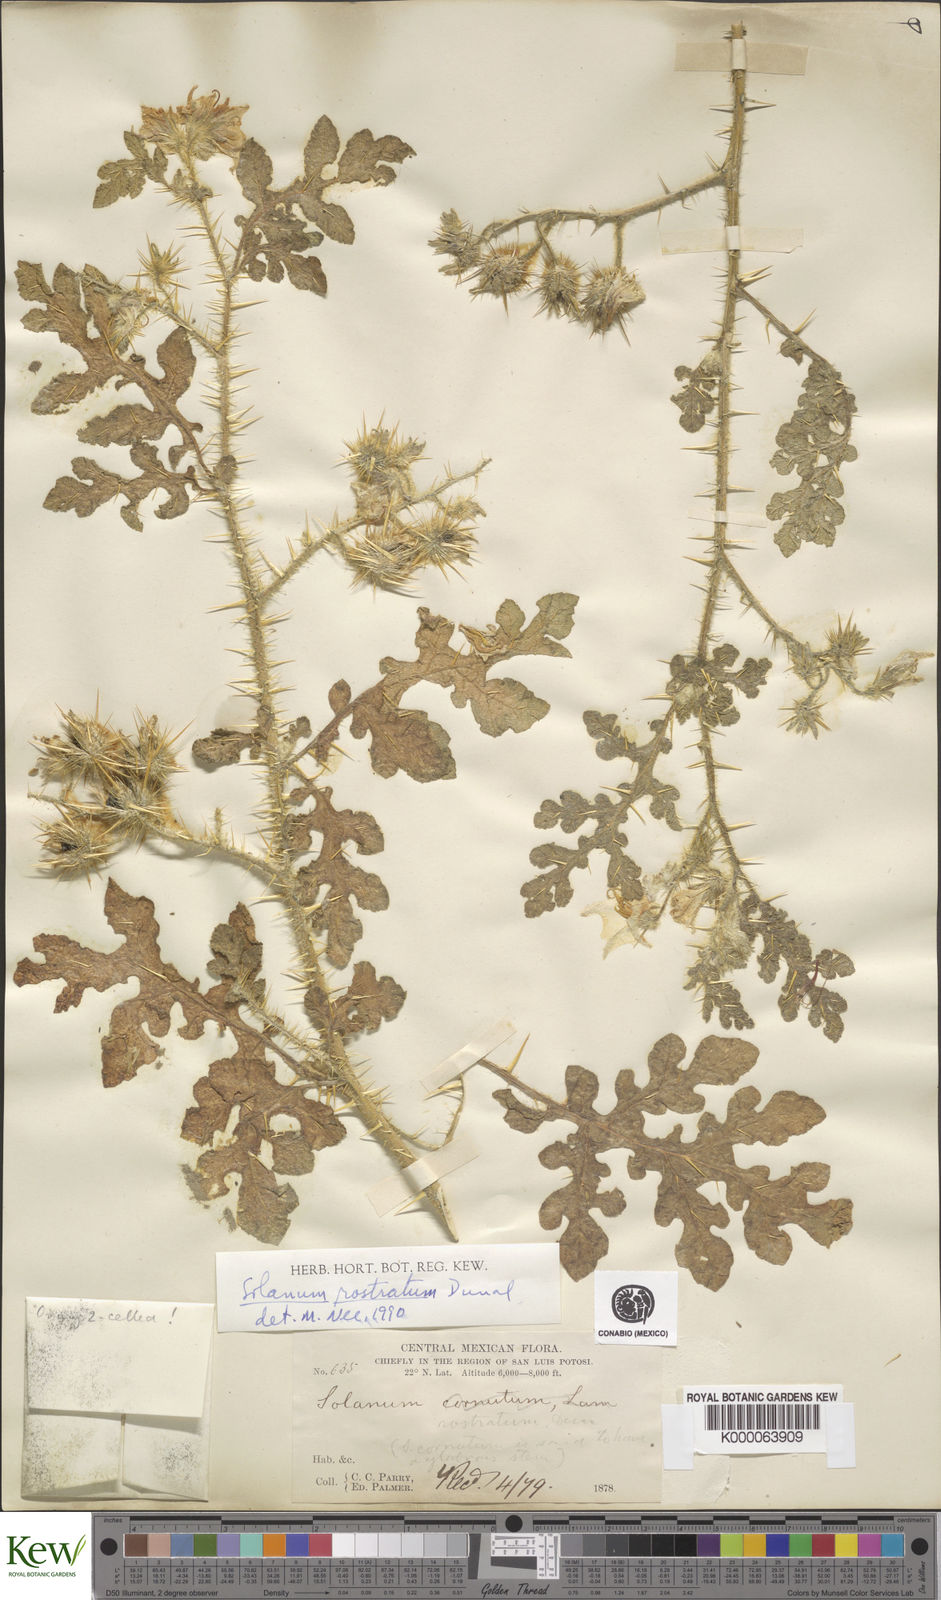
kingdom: Plantae
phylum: Tracheophyta
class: Magnoliopsida
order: Solanales
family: Solanaceae
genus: Solanum
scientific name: Solanum angustifolium
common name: Buffalobur nightshade
